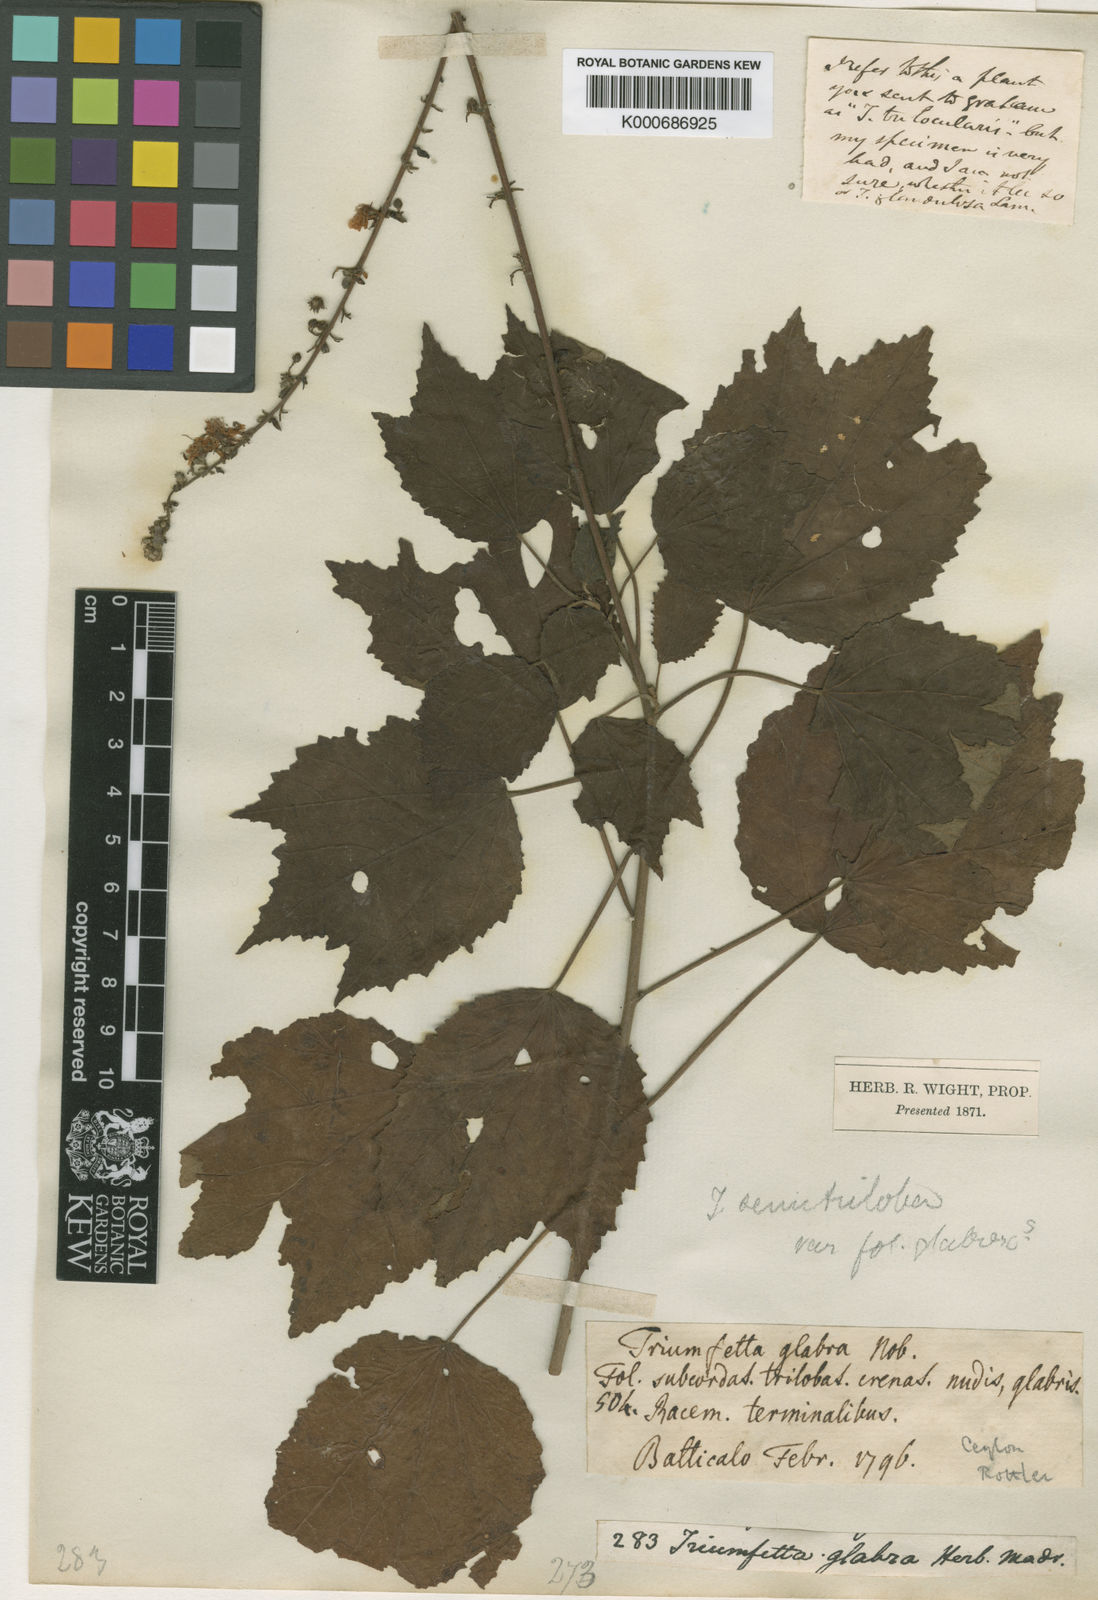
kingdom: Plantae
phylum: Tracheophyta
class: Magnoliopsida
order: Malvales
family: Malvaceae
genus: Triumfetta
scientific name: Triumfetta glabra
